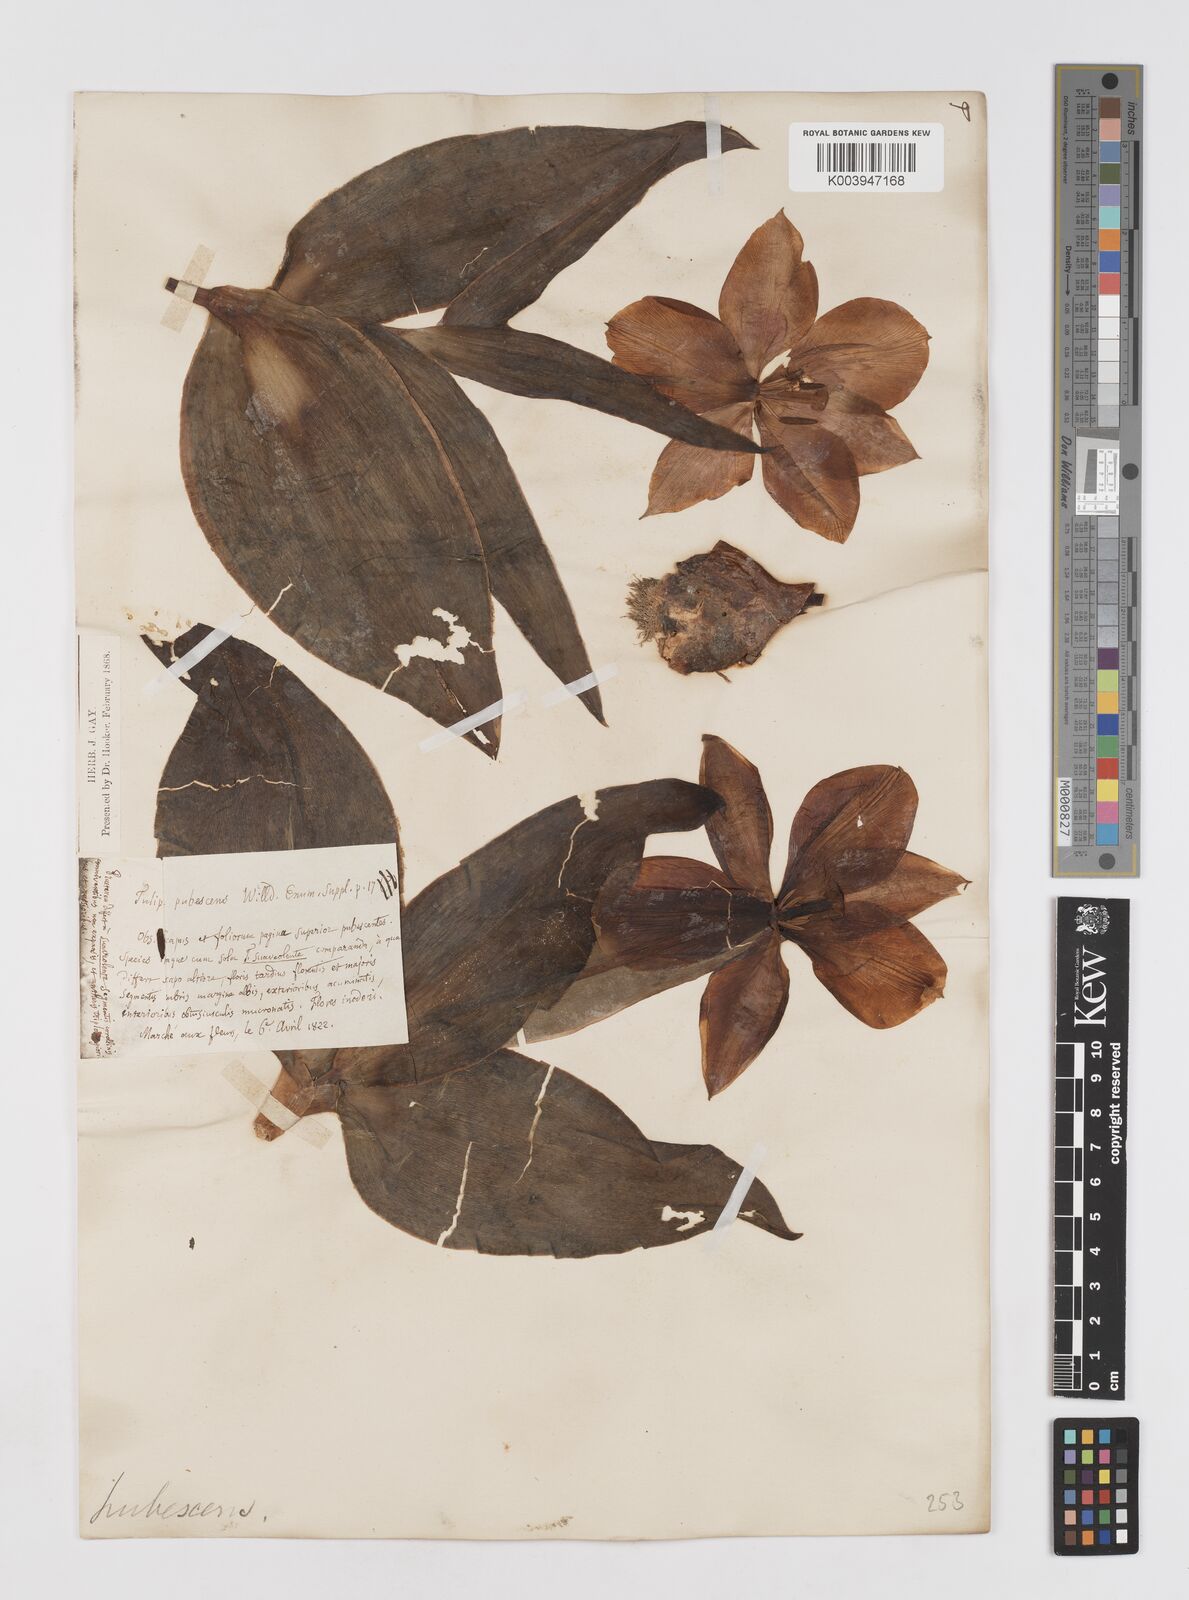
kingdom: Plantae
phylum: Tracheophyta
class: Liliopsida
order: Liliales
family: Liliaceae
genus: Tulipa
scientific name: Tulipa gesneriana
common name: Garden tulip
